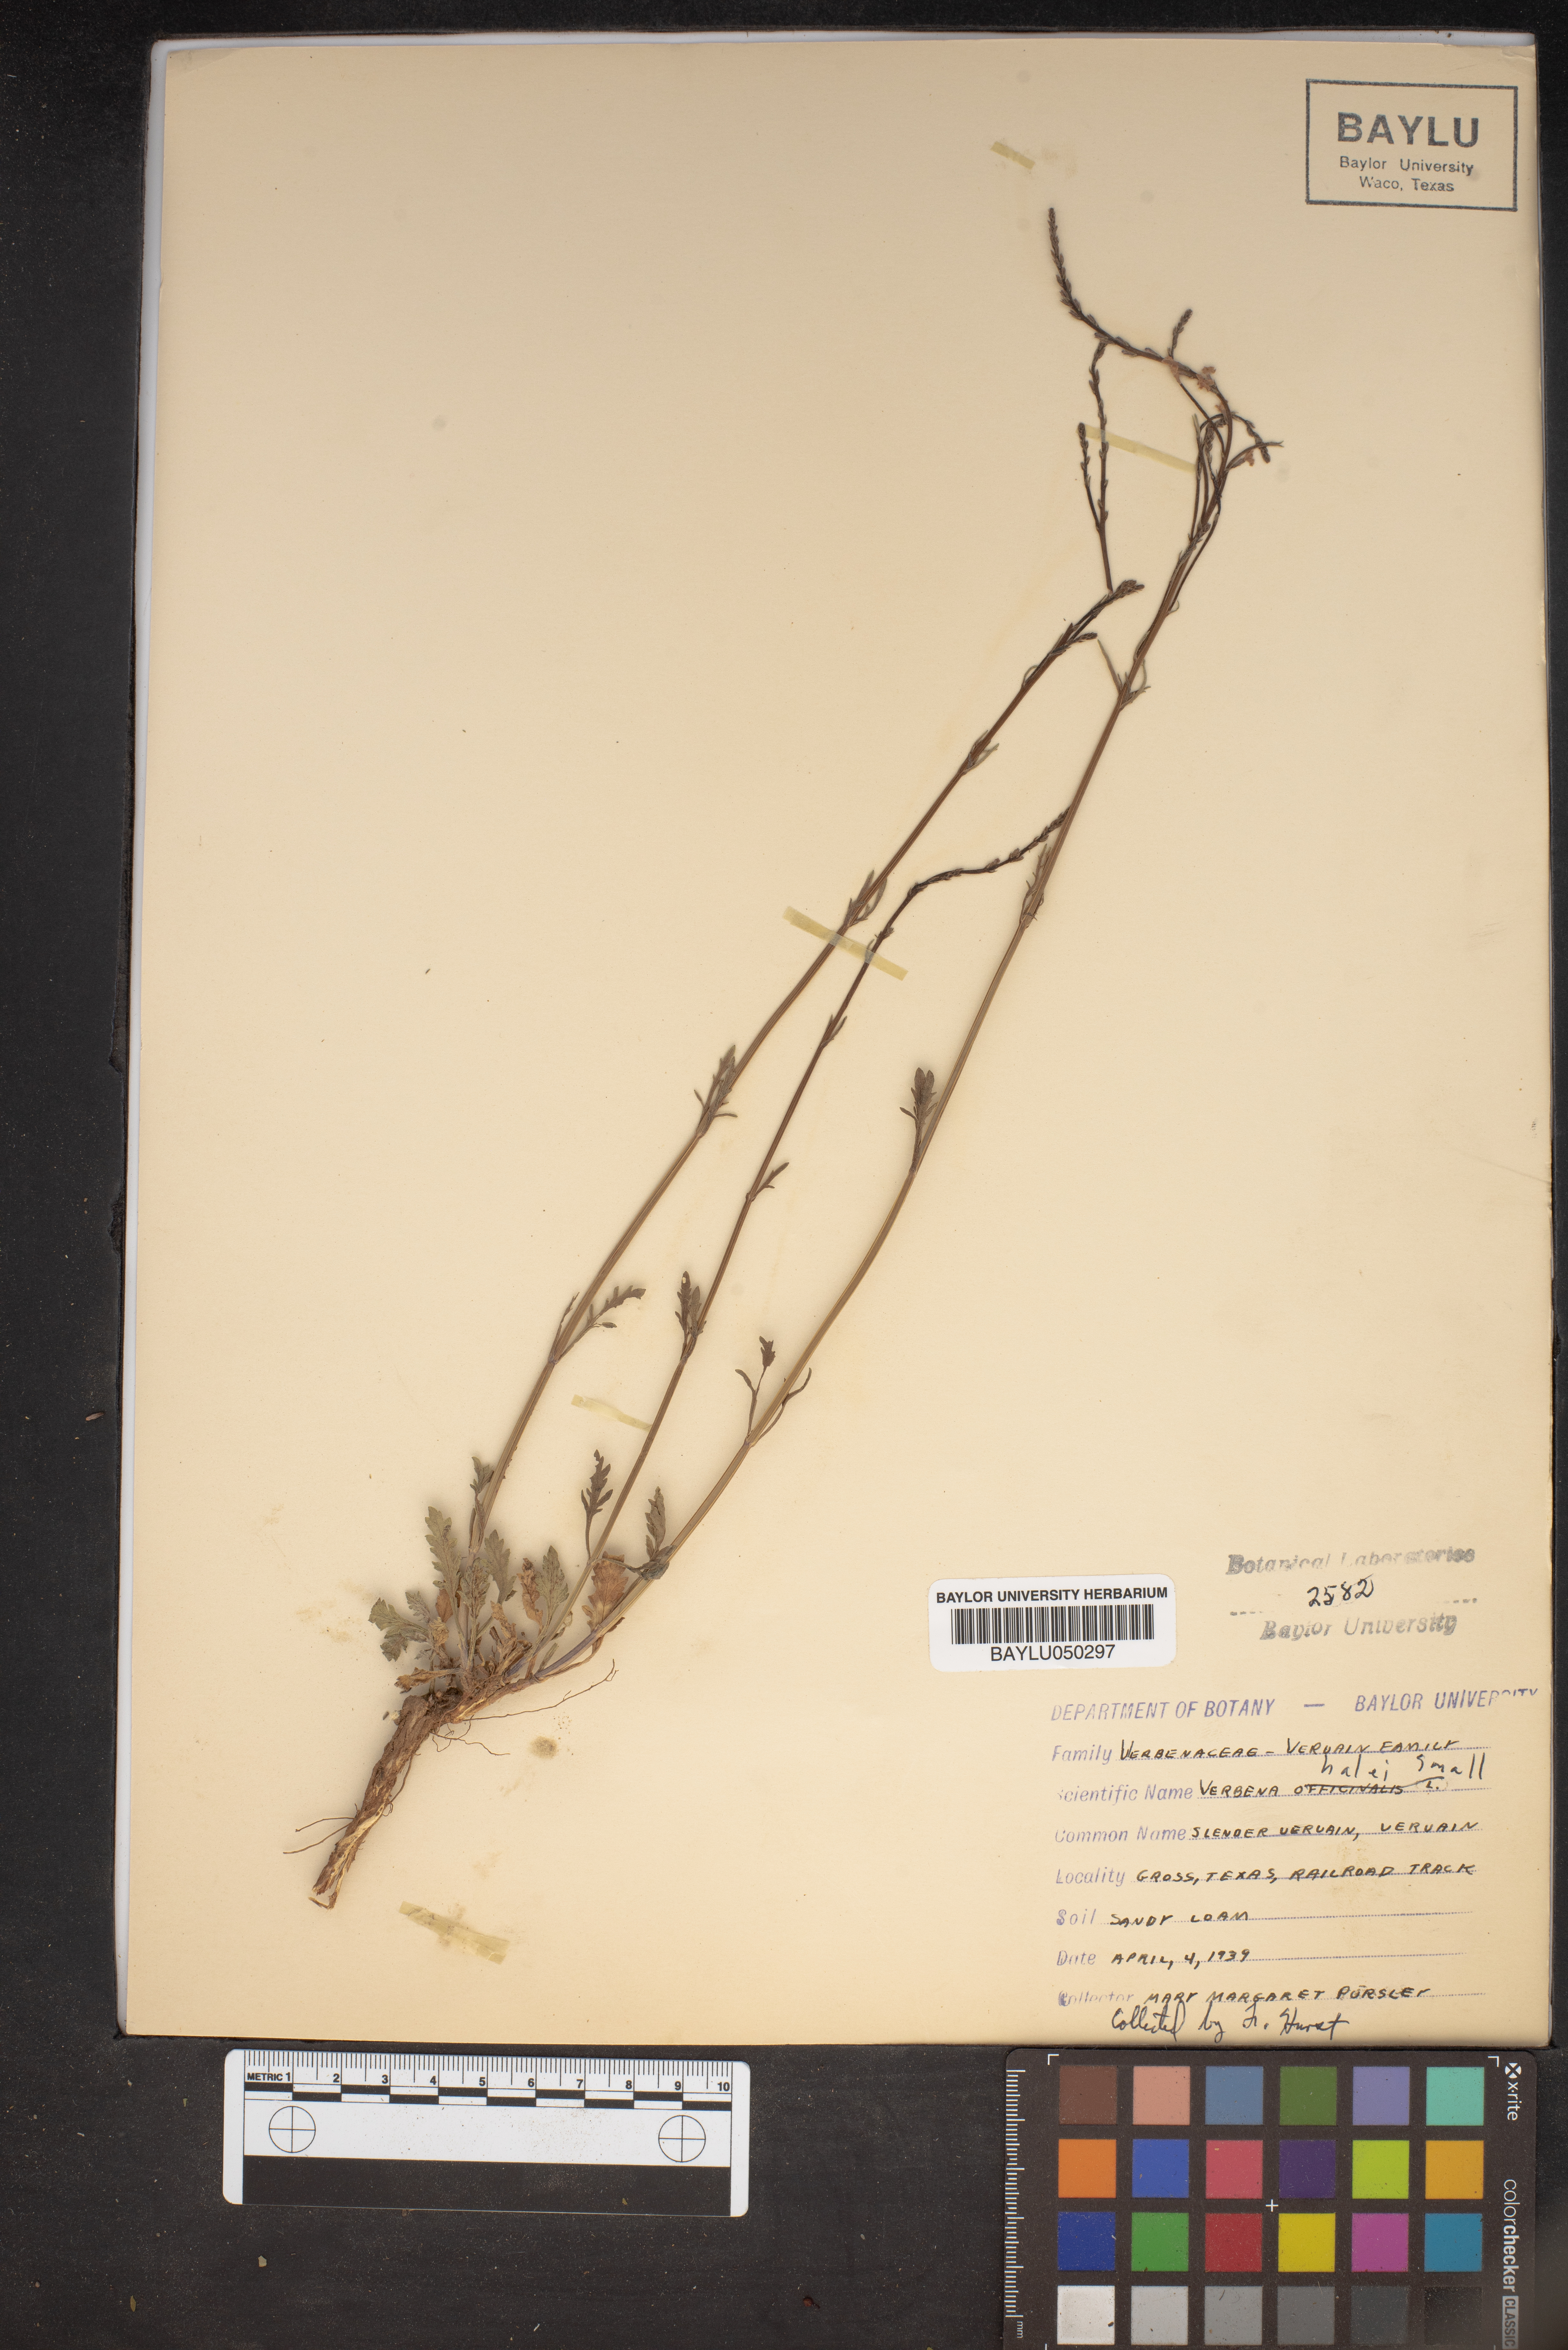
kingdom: Plantae
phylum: Tracheophyta
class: Magnoliopsida
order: Lamiales
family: Verbenaceae
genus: Verbena
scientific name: Verbena halei
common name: Texas vervain
